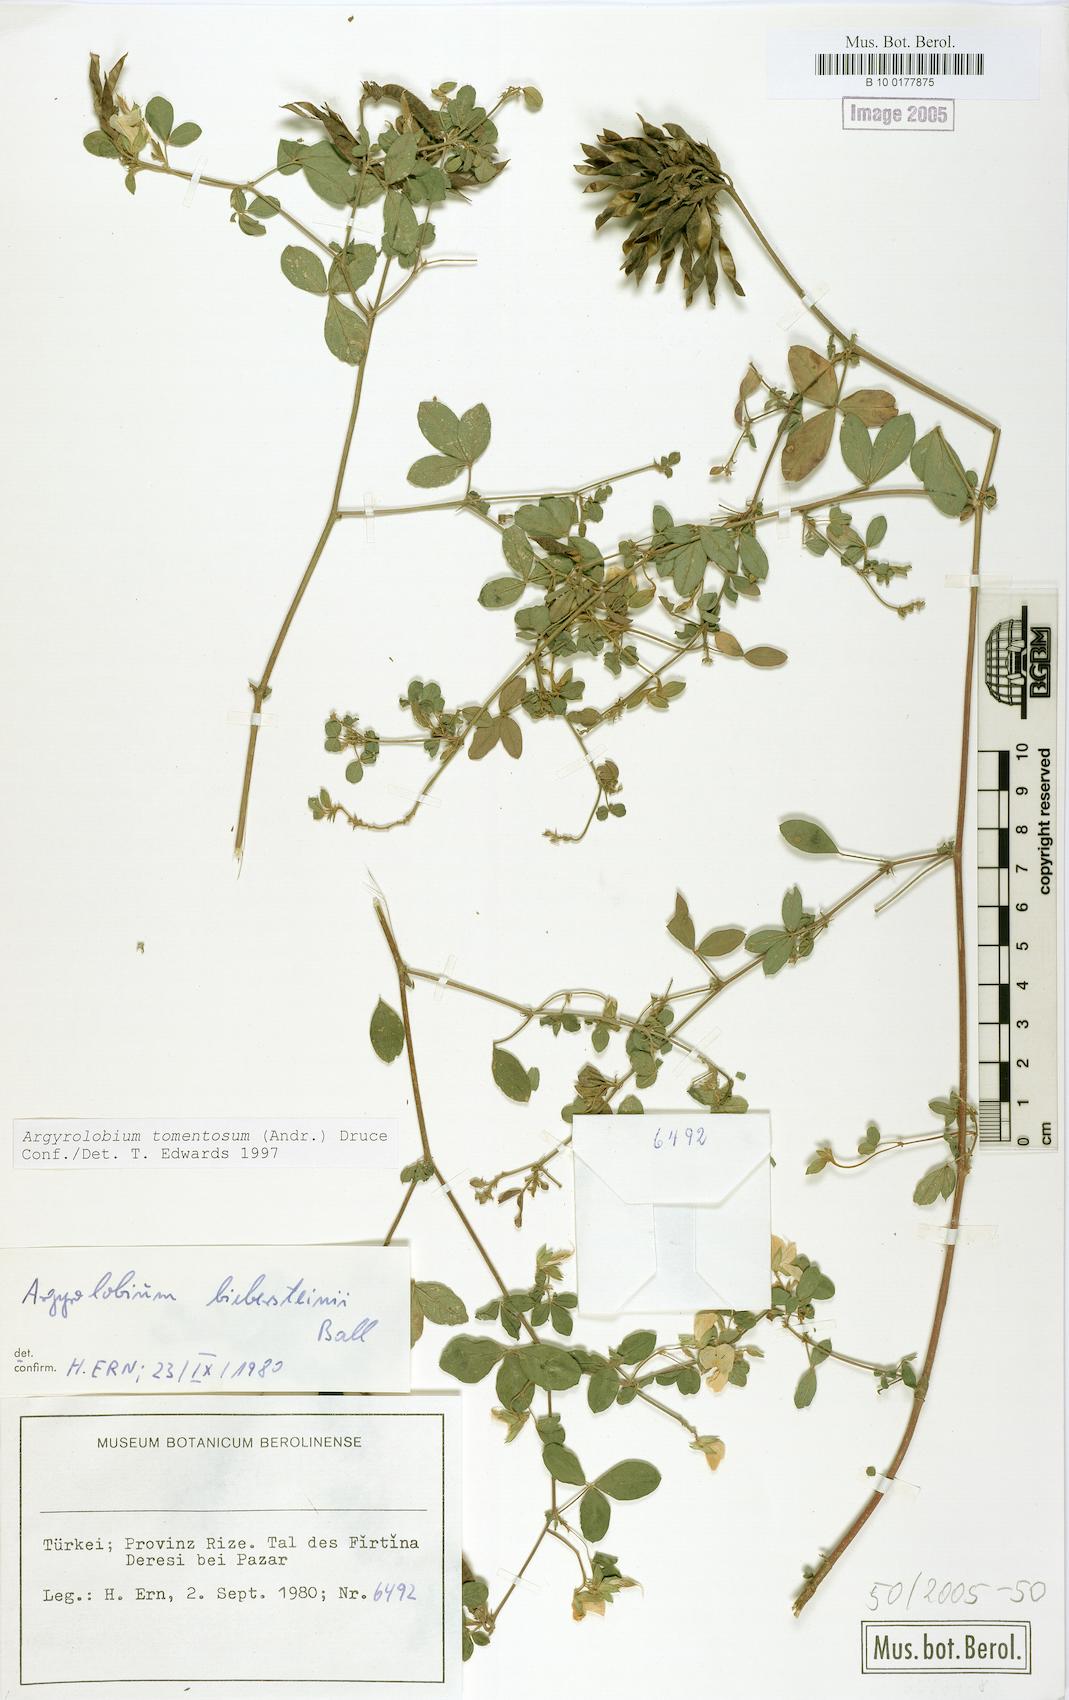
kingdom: Plantae
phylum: Tracheophyta
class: Magnoliopsida
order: Fabales
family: Fabaceae
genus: Argyrolobium
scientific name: Argyrolobium tomentosum
